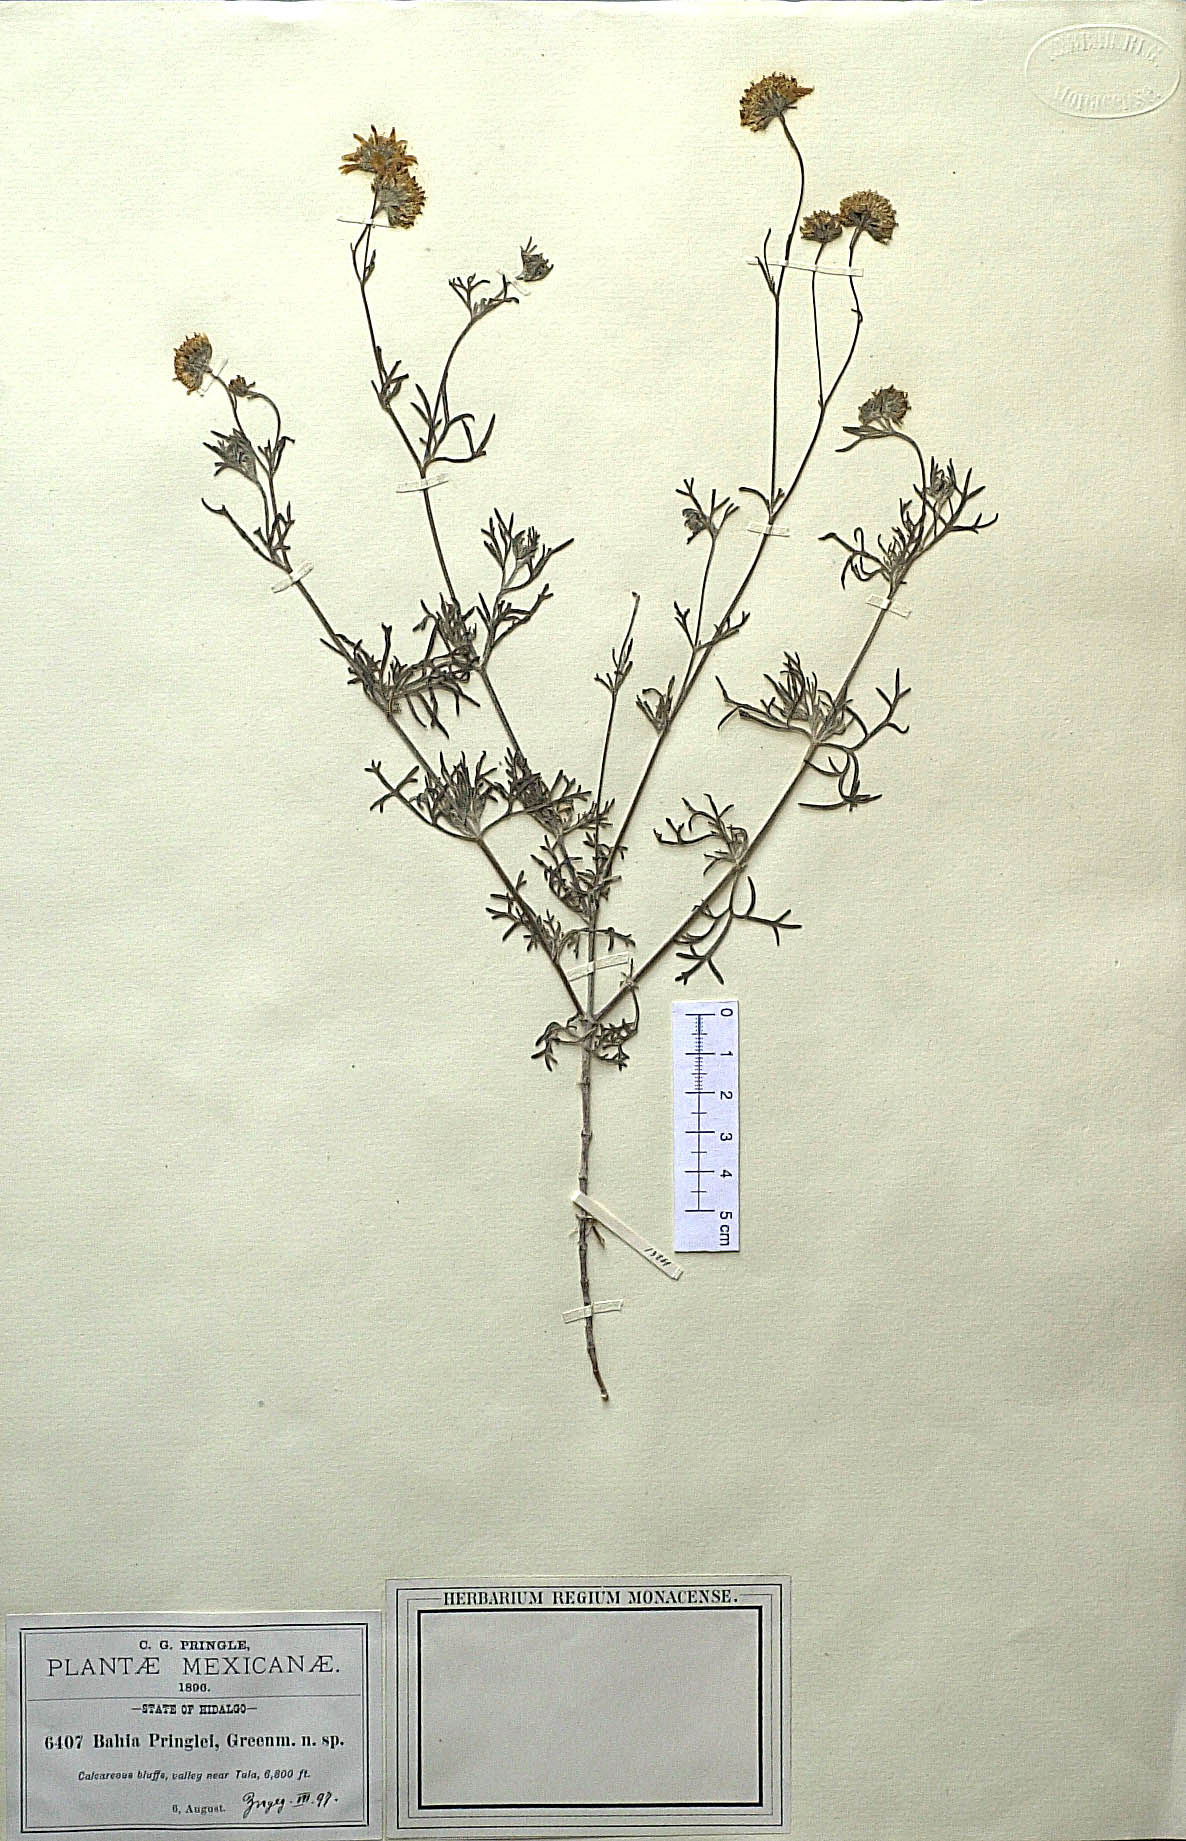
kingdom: Plantae
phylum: Tracheophyta
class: Magnoliopsida
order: Asterales
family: Asteraceae
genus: Picradeniopsis
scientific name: Picradeniopsis pringlei
